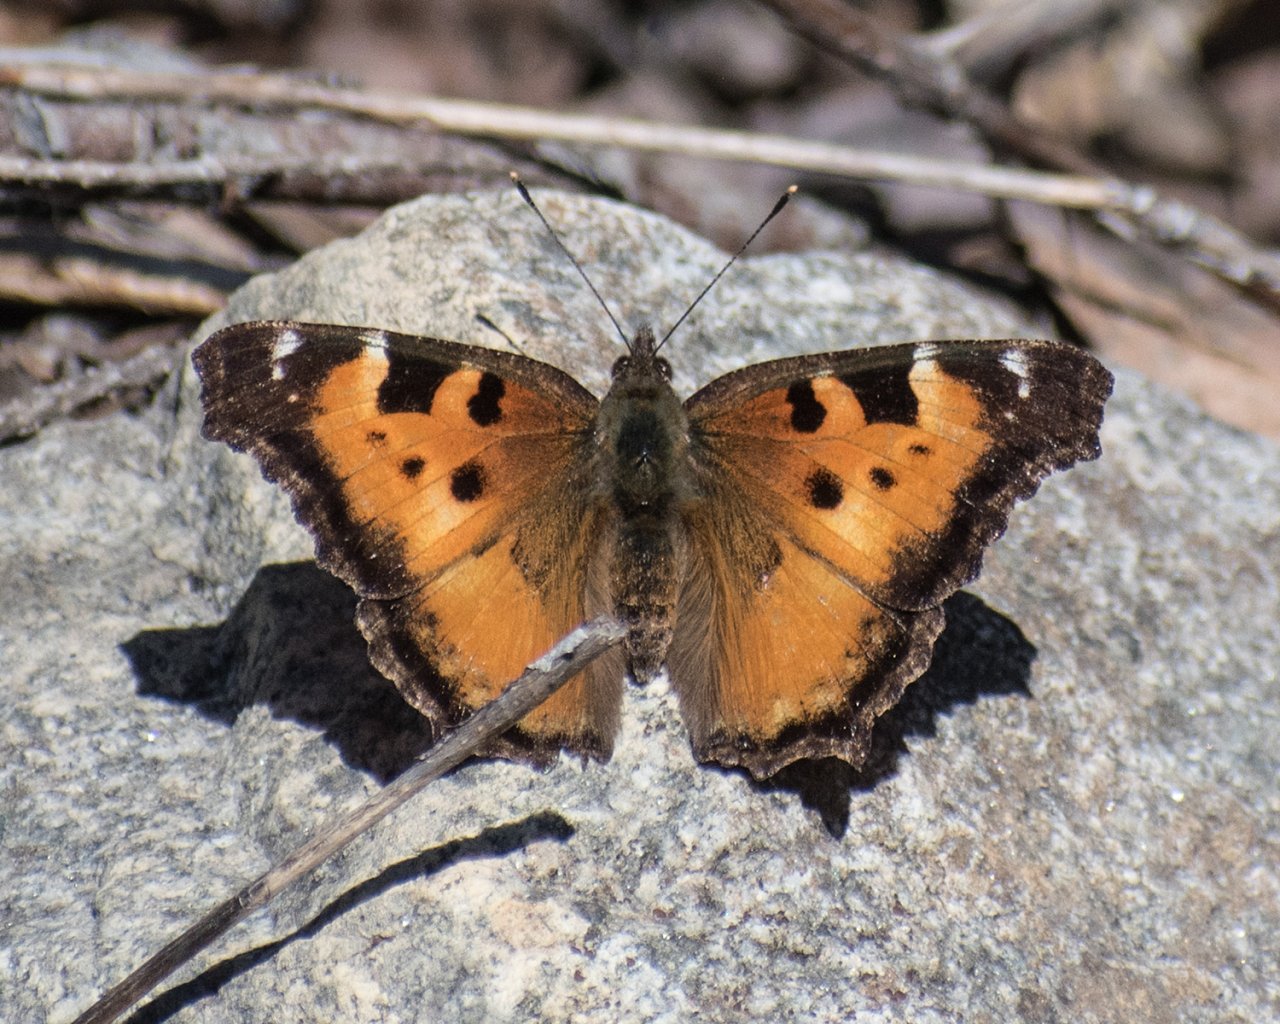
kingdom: Animalia
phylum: Arthropoda
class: Insecta
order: Lepidoptera
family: Nymphalidae
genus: Nymphalis
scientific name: Nymphalis californica
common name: California Tortoiseshell
